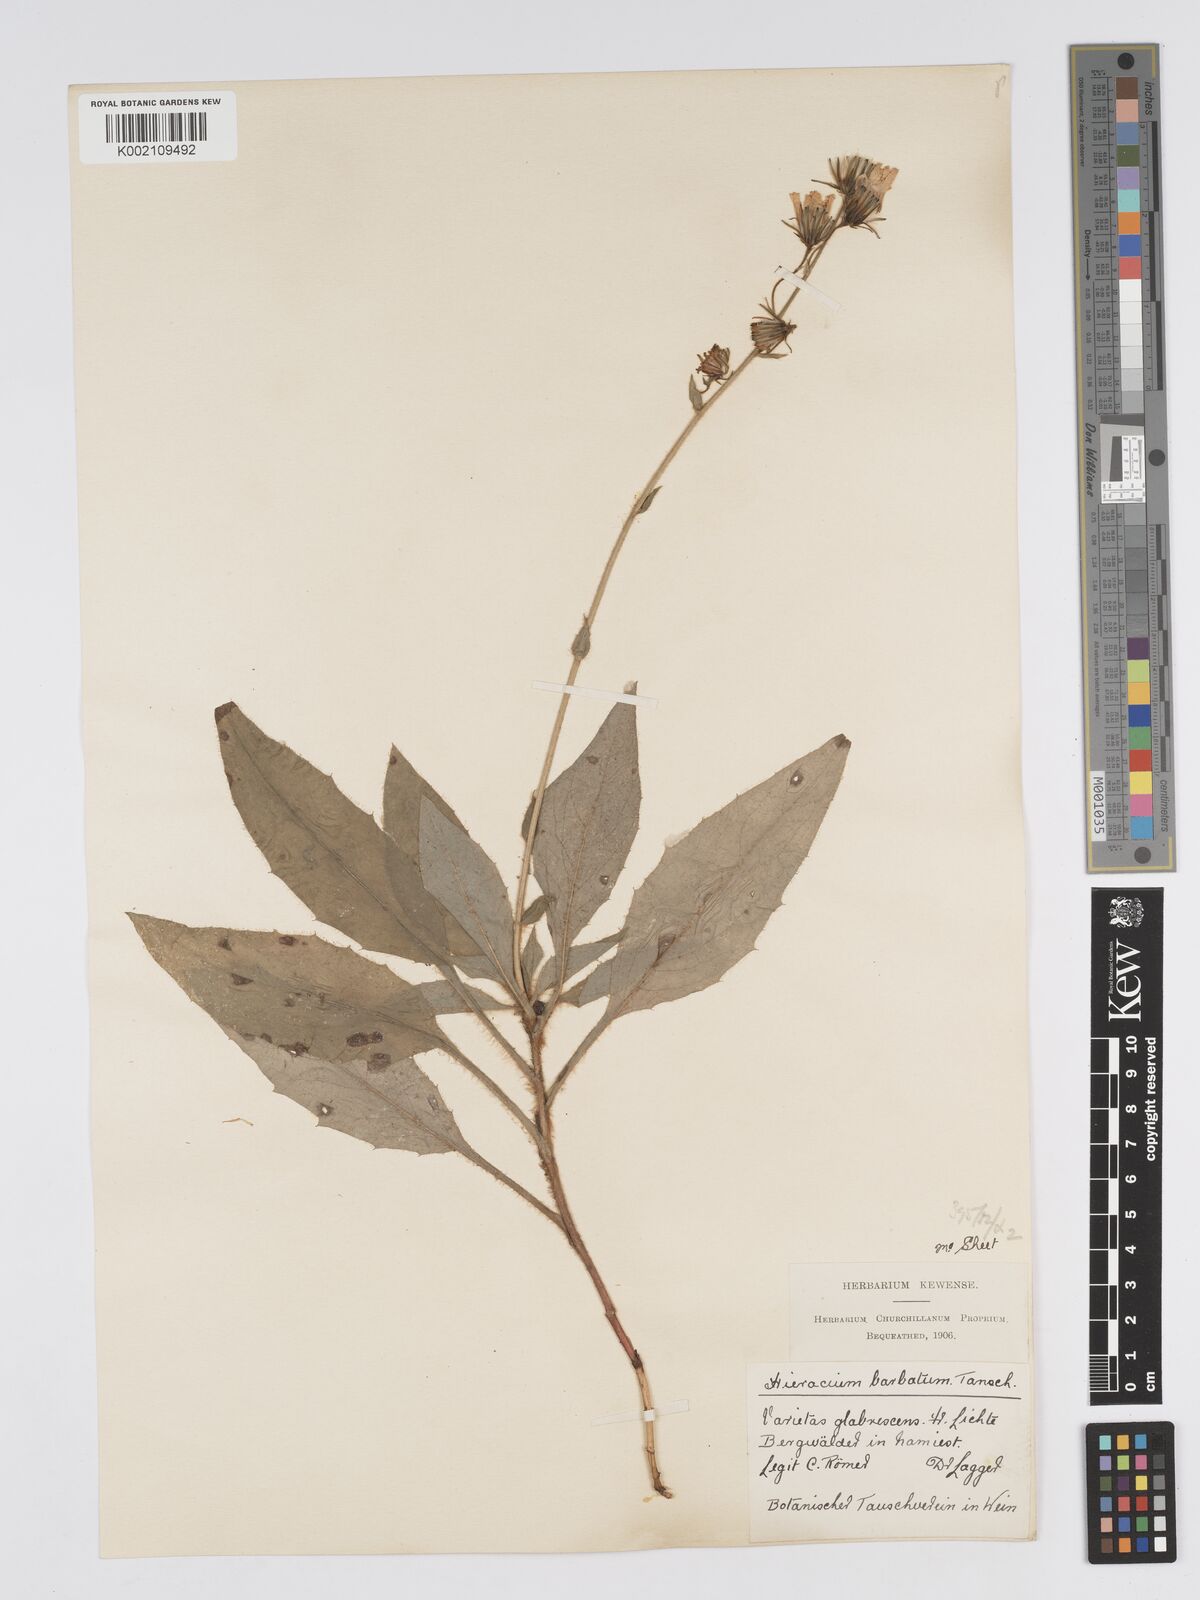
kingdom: Plantae
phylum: Tracheophyta
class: Magnoliopsida
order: Asterales
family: Asteraceae
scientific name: Asteraceae
